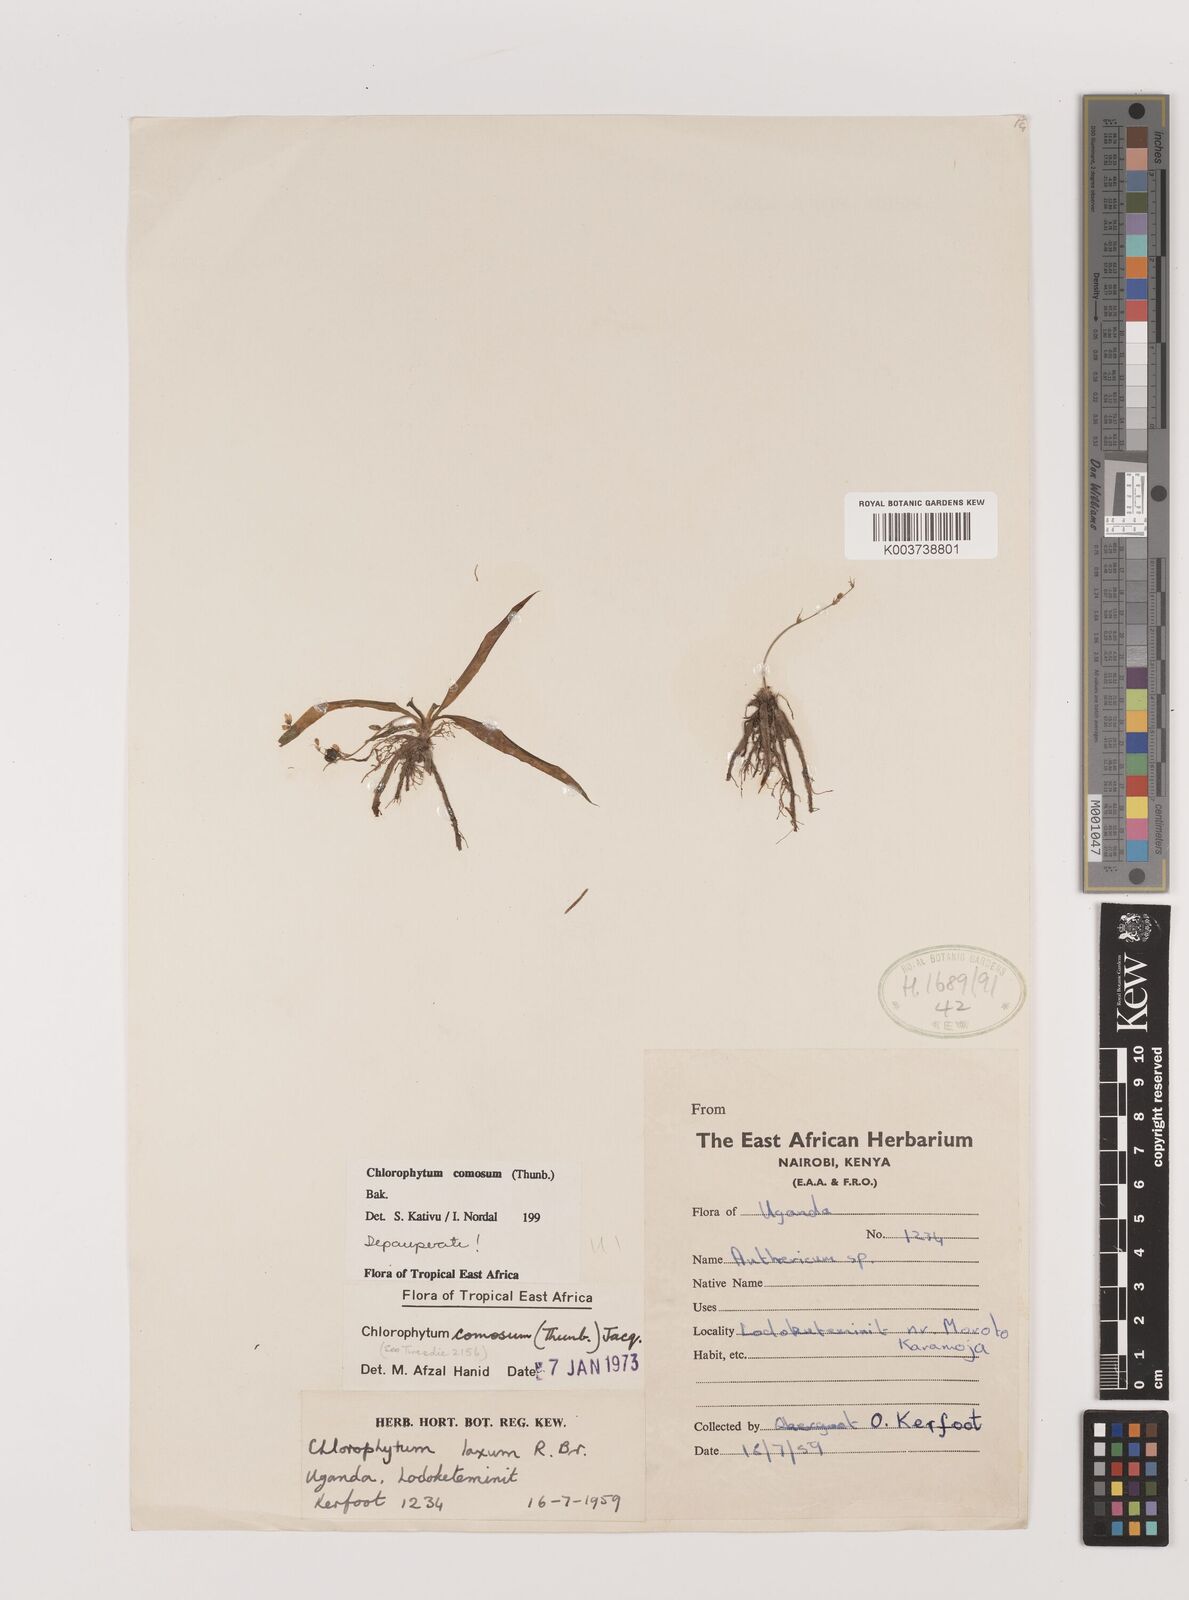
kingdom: Plantae
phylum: Tracheophyta
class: Liliopsida
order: Asparagales
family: Asparagaceae
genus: Chlorophytum
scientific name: Chlorophytum comosum
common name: Spider plant
